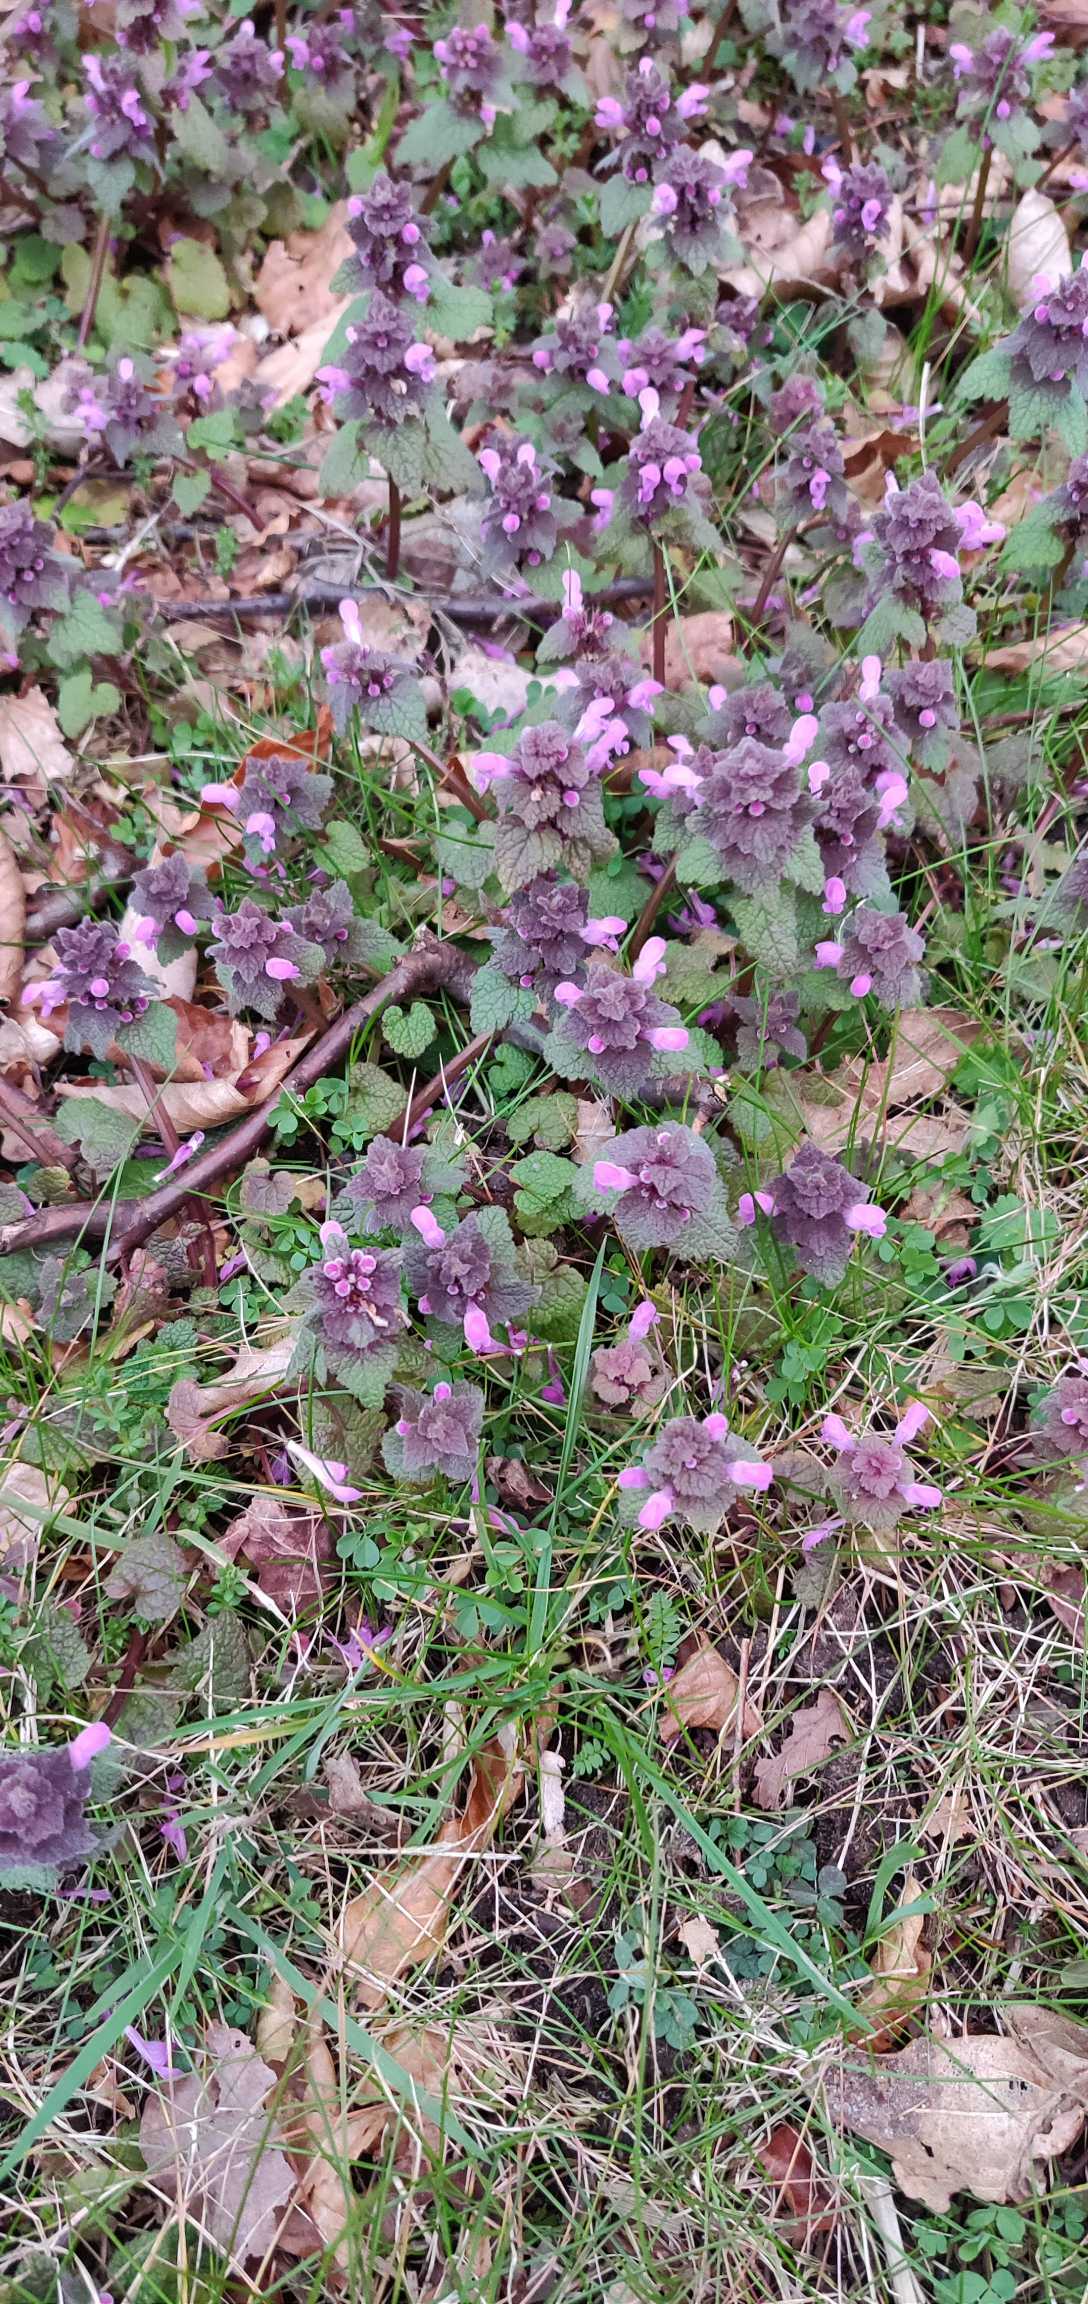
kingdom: Plantae
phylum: Tracheophyta
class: Magnoliopsida
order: Lamiales
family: Lamiaceae
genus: Lamium
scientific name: Lamium purpureum
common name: Rød tvetand
